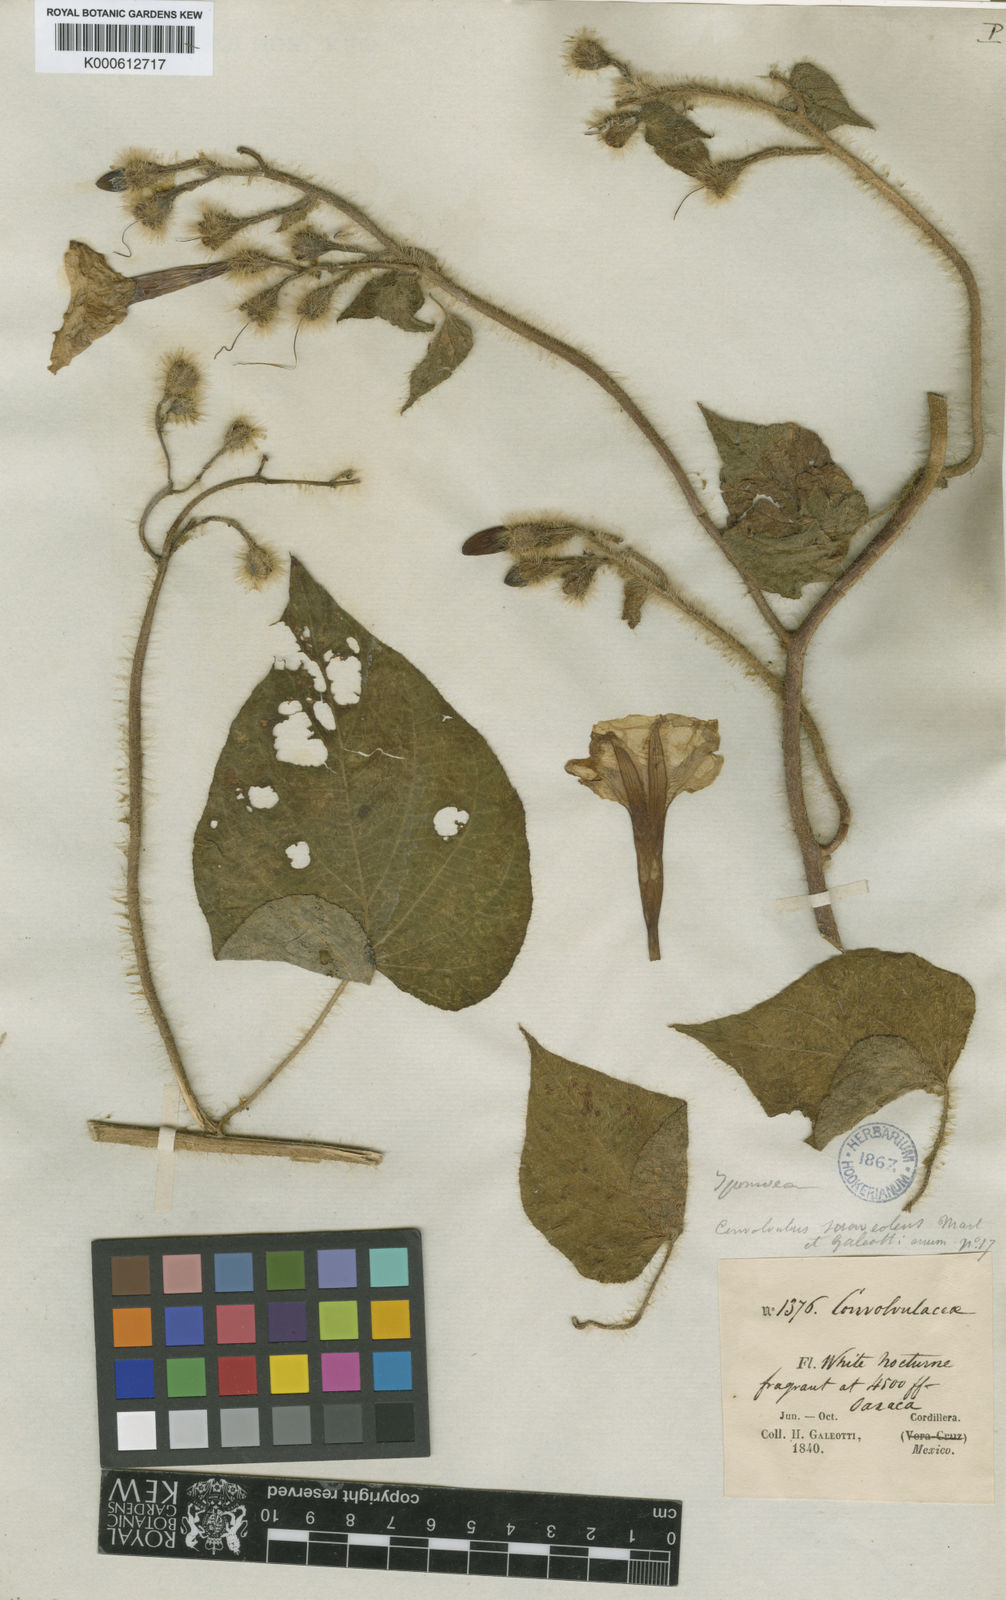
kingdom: Plantae
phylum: Tracheophyta
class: Magnoliopsida
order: Solanales
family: Convolvulaceae
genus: Ipomoea
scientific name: Ipomoea suaveolens
